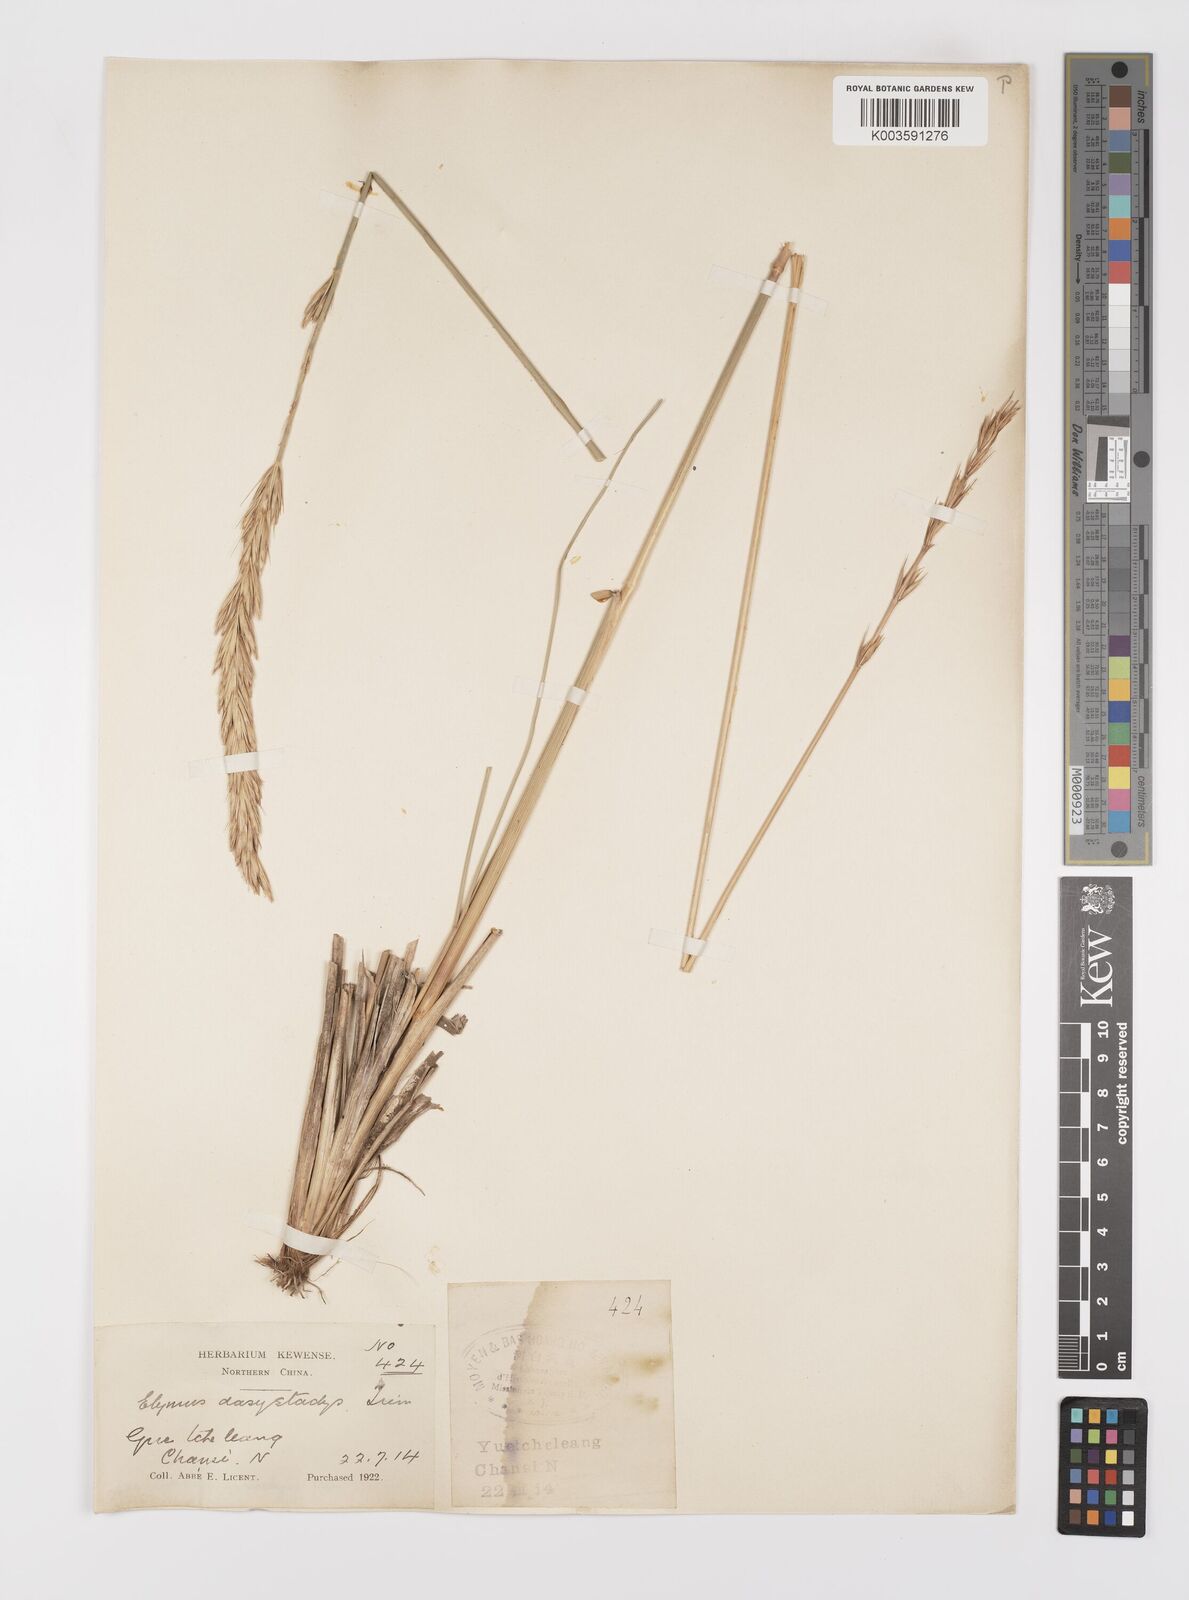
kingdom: Plantae
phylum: Tracheophyta
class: Liliopsida
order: Poales
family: Poaceae
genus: Leymus
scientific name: Leymus secalinus
